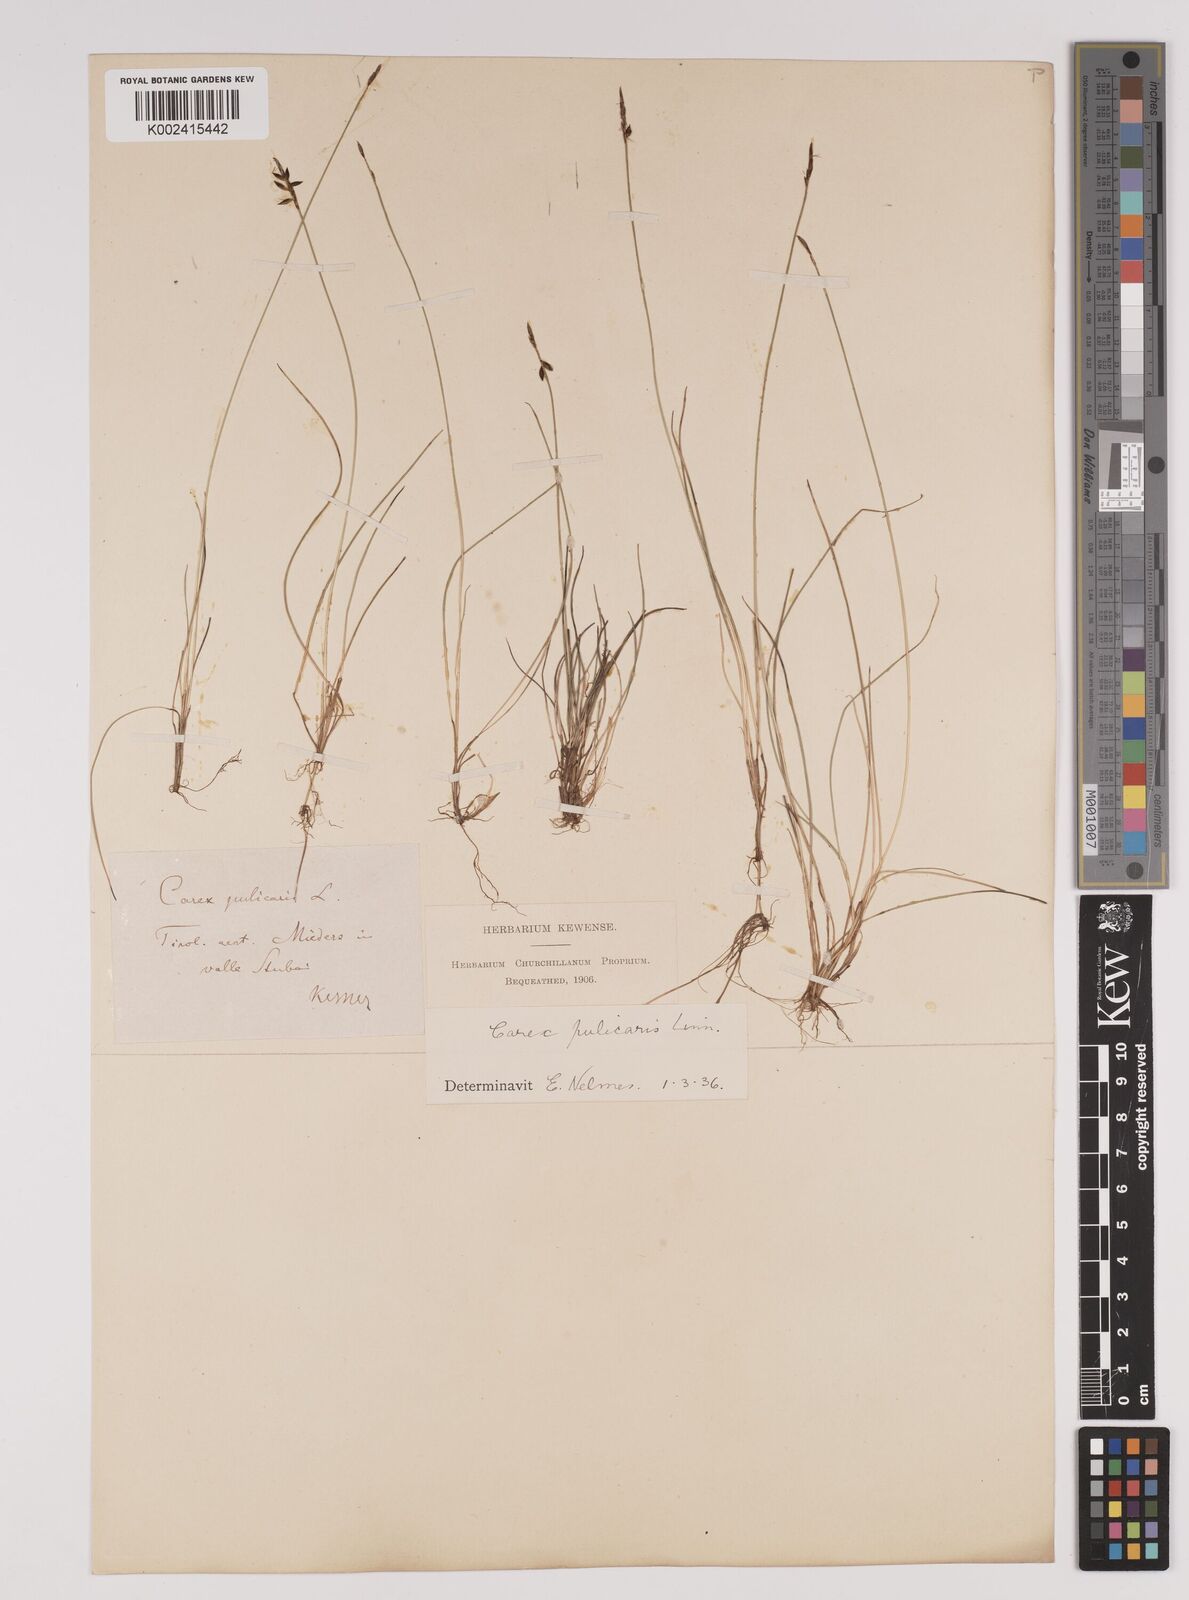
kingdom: Plantae
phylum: Tracheophyta
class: Liliopsida
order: Poales
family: Cyperaceae
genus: Carex
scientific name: Carex pulicaris
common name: Flea sedge
